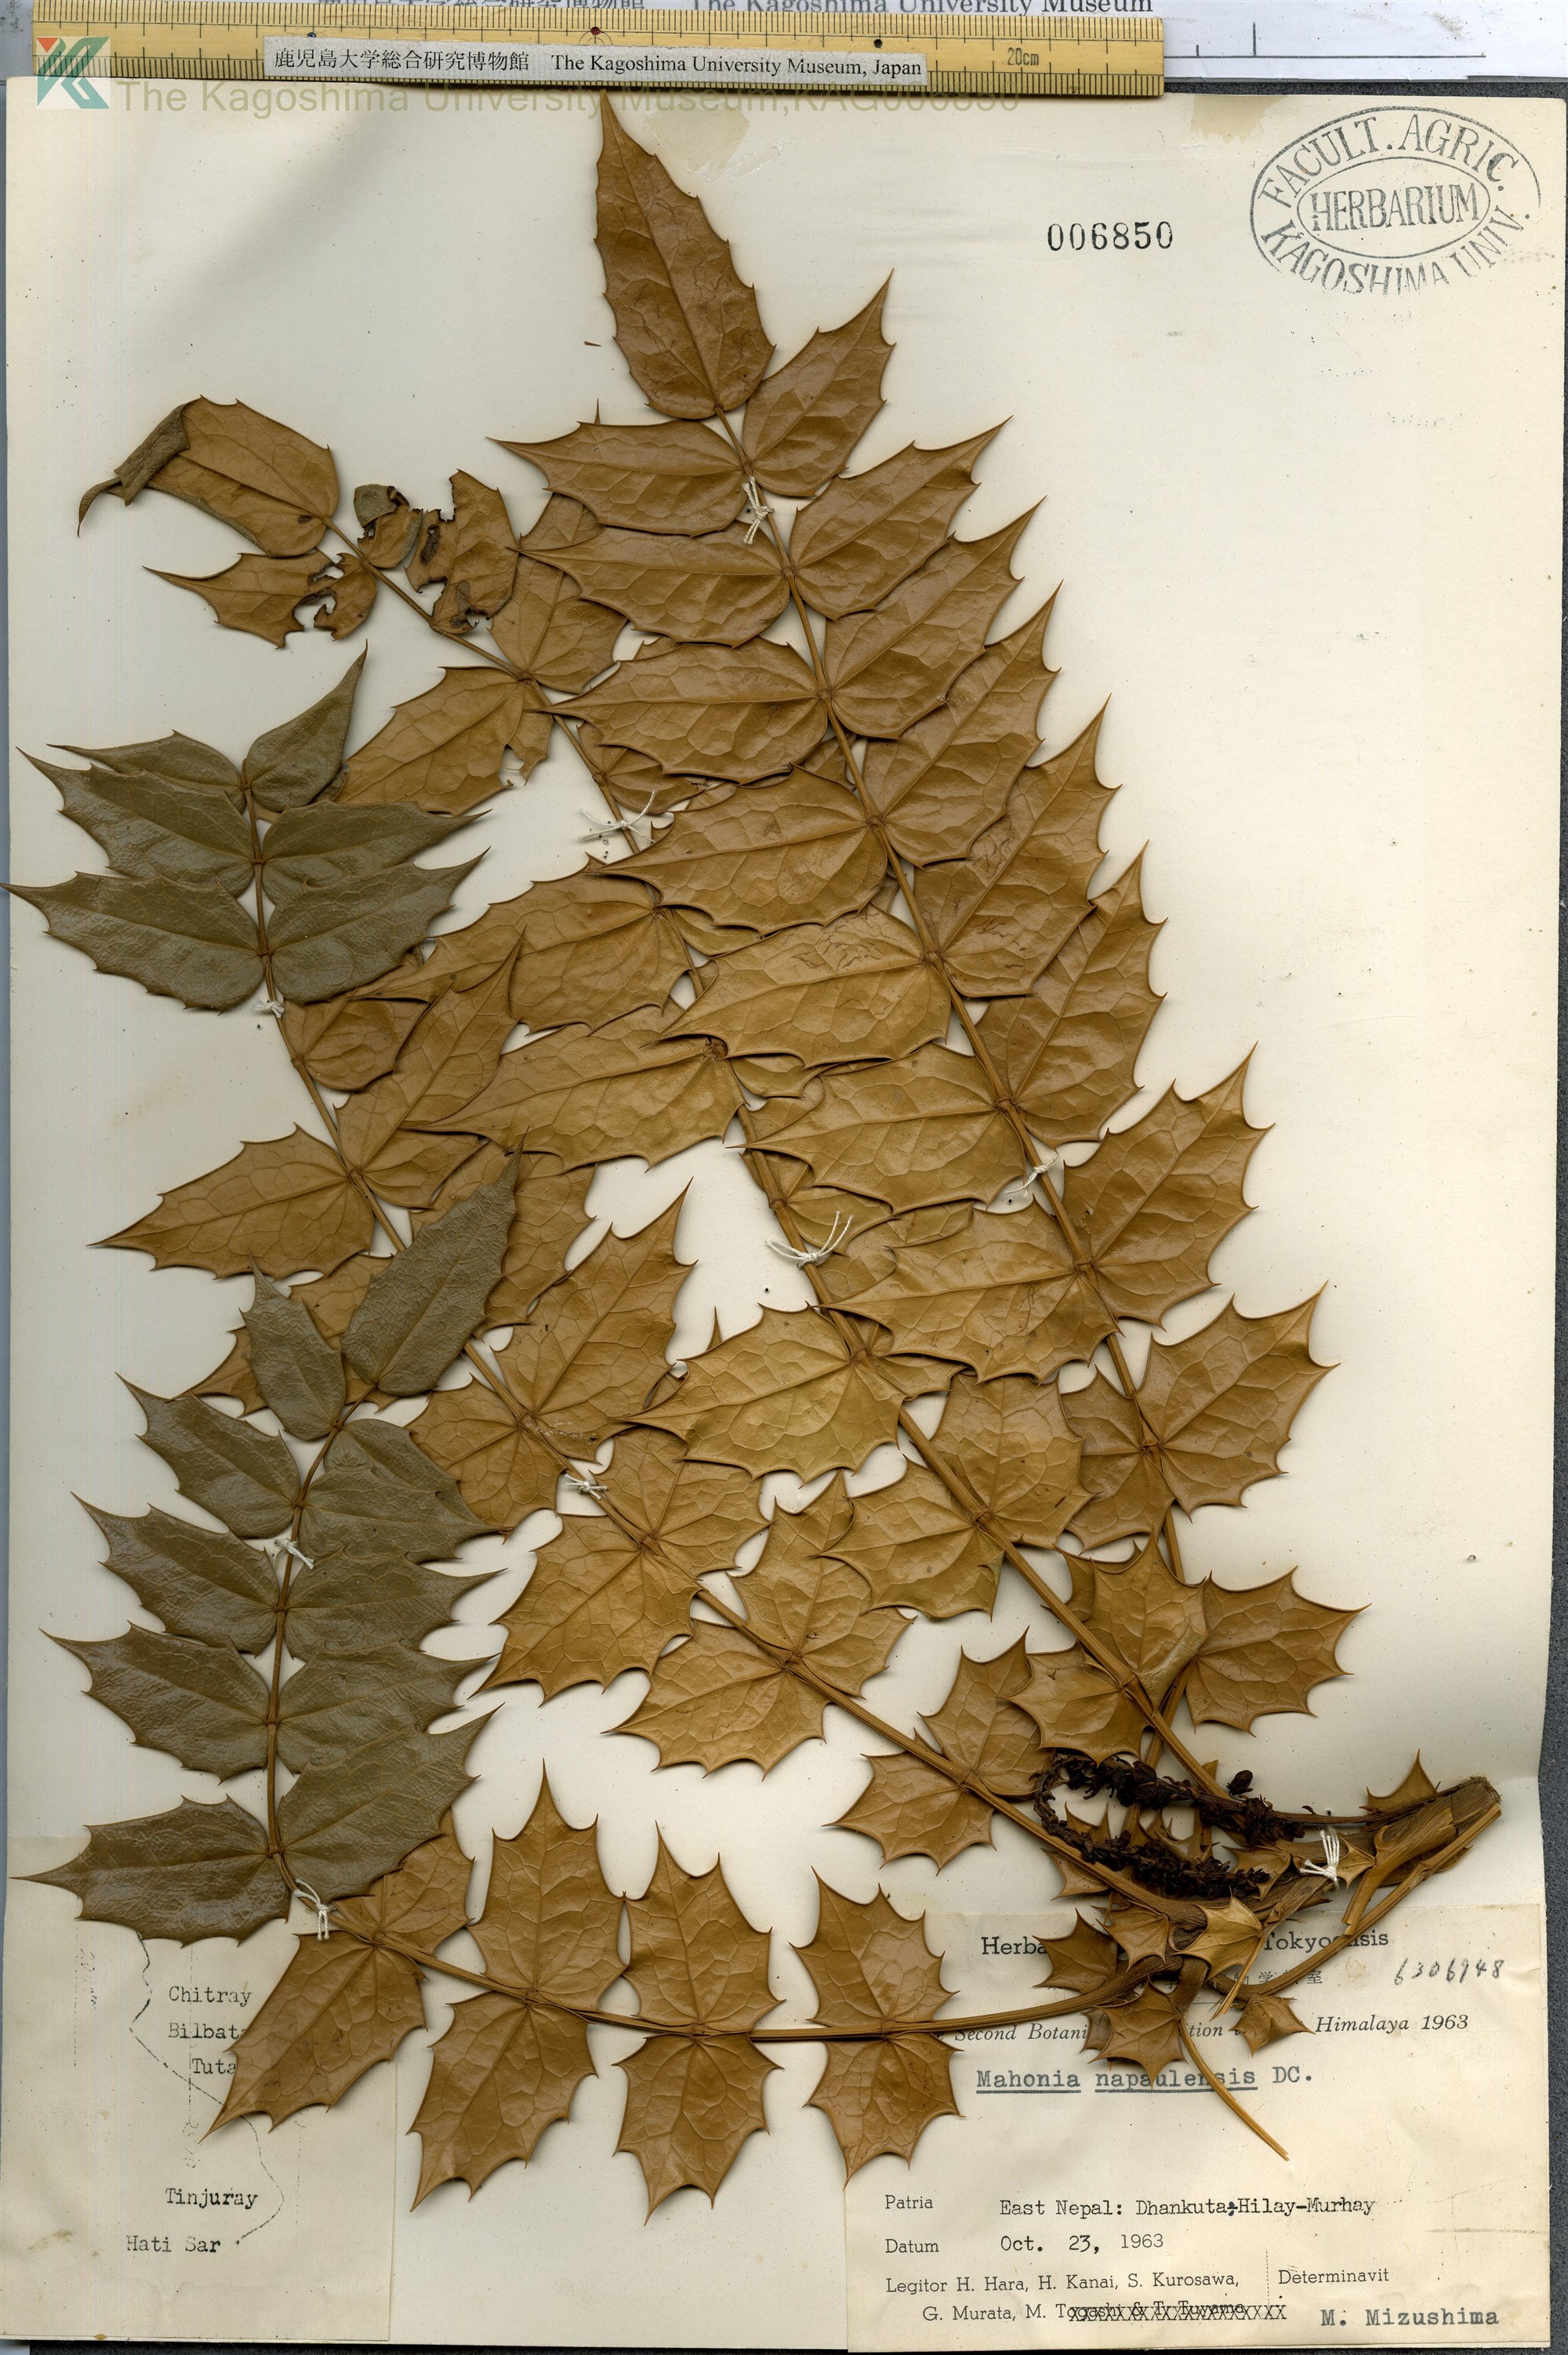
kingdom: Plantae
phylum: Tracheophyta
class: Magnoliopsida
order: Ranunculales
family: Berberidaceae
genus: Mahonia
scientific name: Mahonia napaulensis
